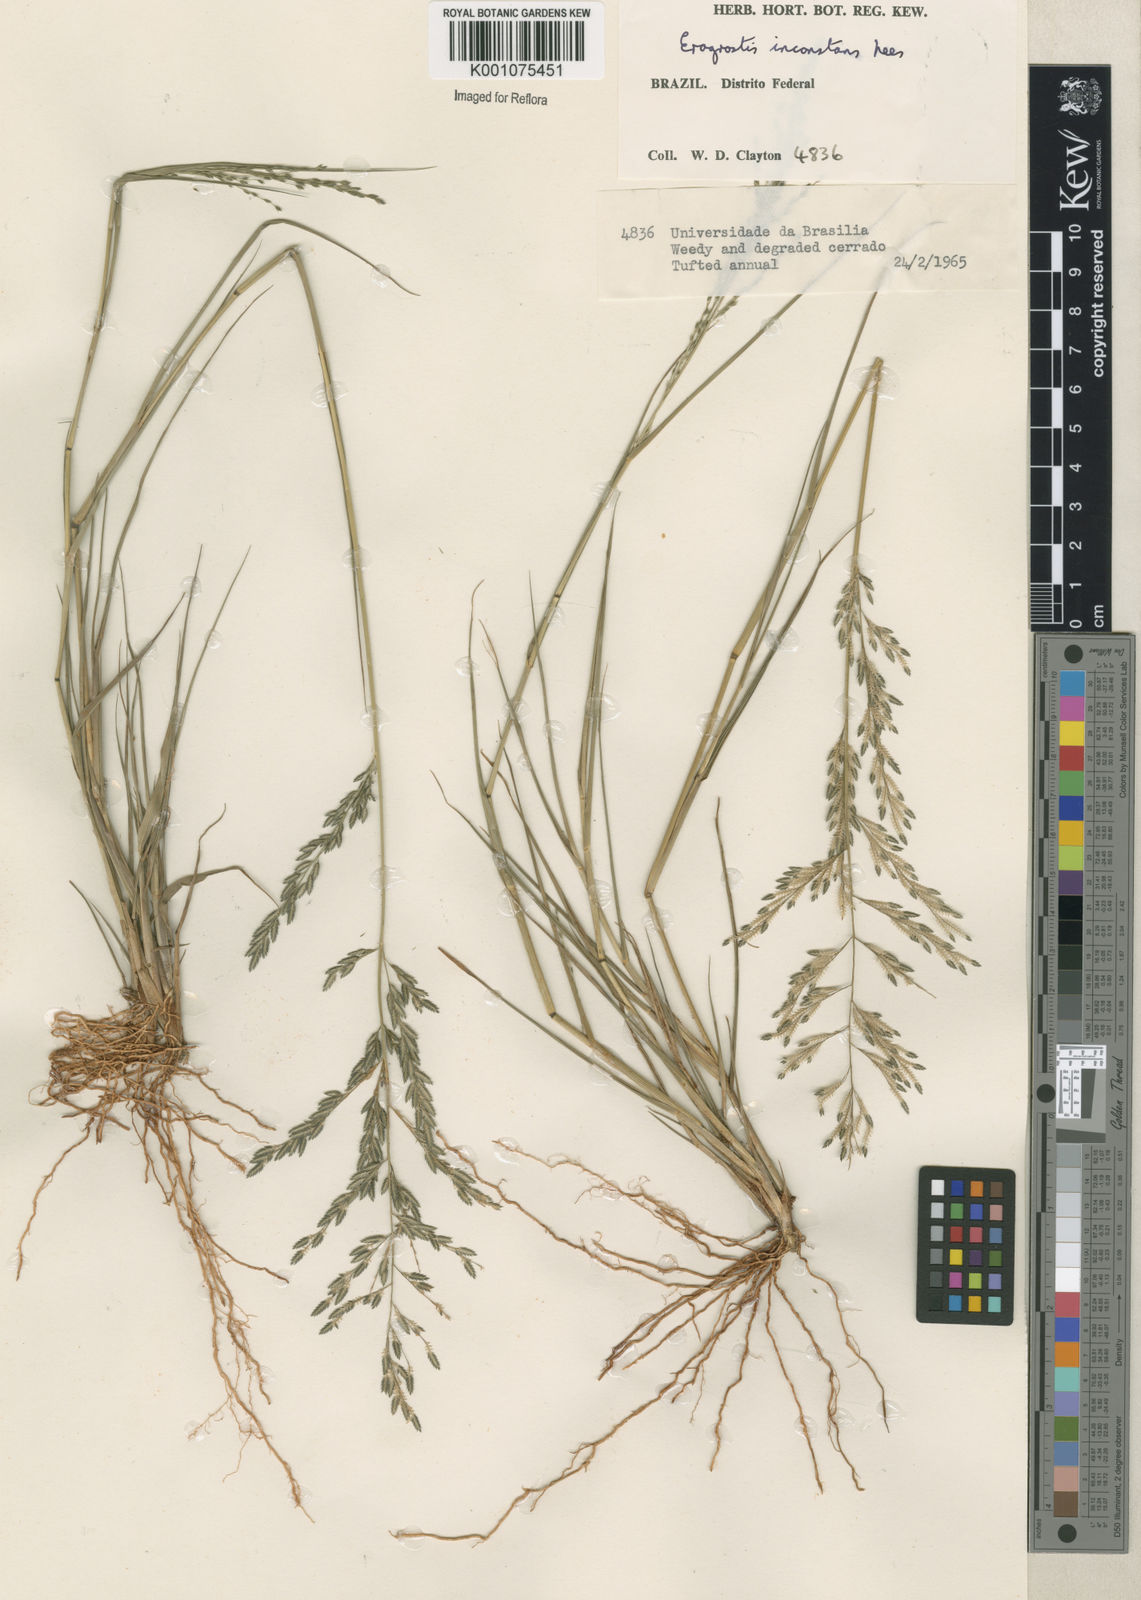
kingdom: Plantae
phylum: Tracheophyta
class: Liliopsida
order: Poales
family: Poaceae
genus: Eragrostis
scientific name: Eragrostis rufescens
